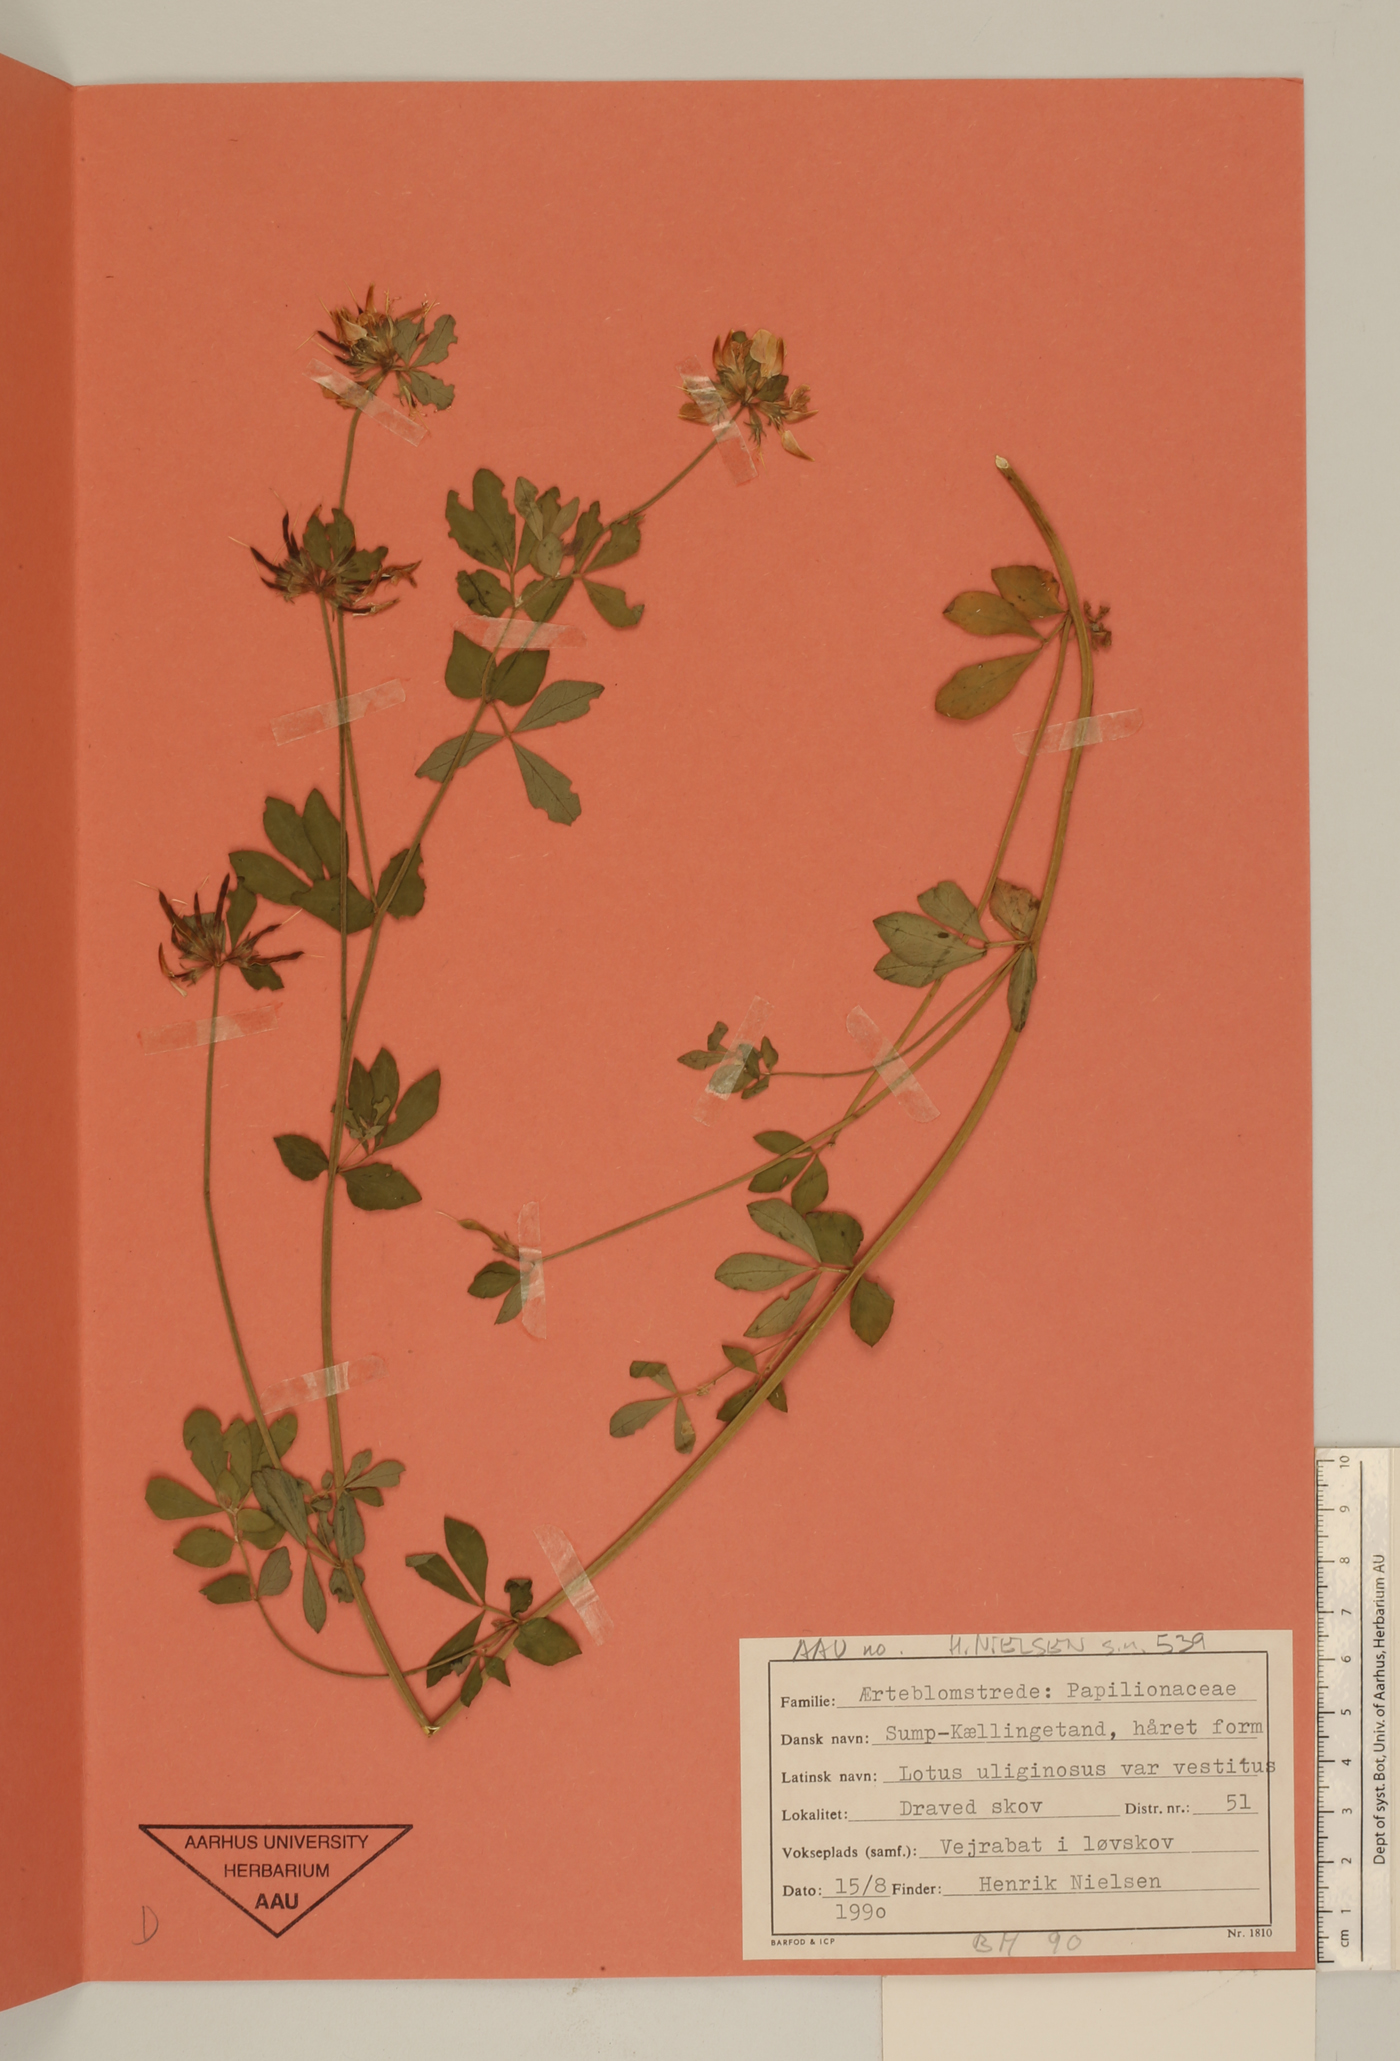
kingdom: Plantae
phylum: Tracheophyta
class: Magnoliopsida
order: Fabales
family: Fabaceae
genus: Lotus
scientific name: Lotus pedunculatus
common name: Greater birdsfoot-trefoil
